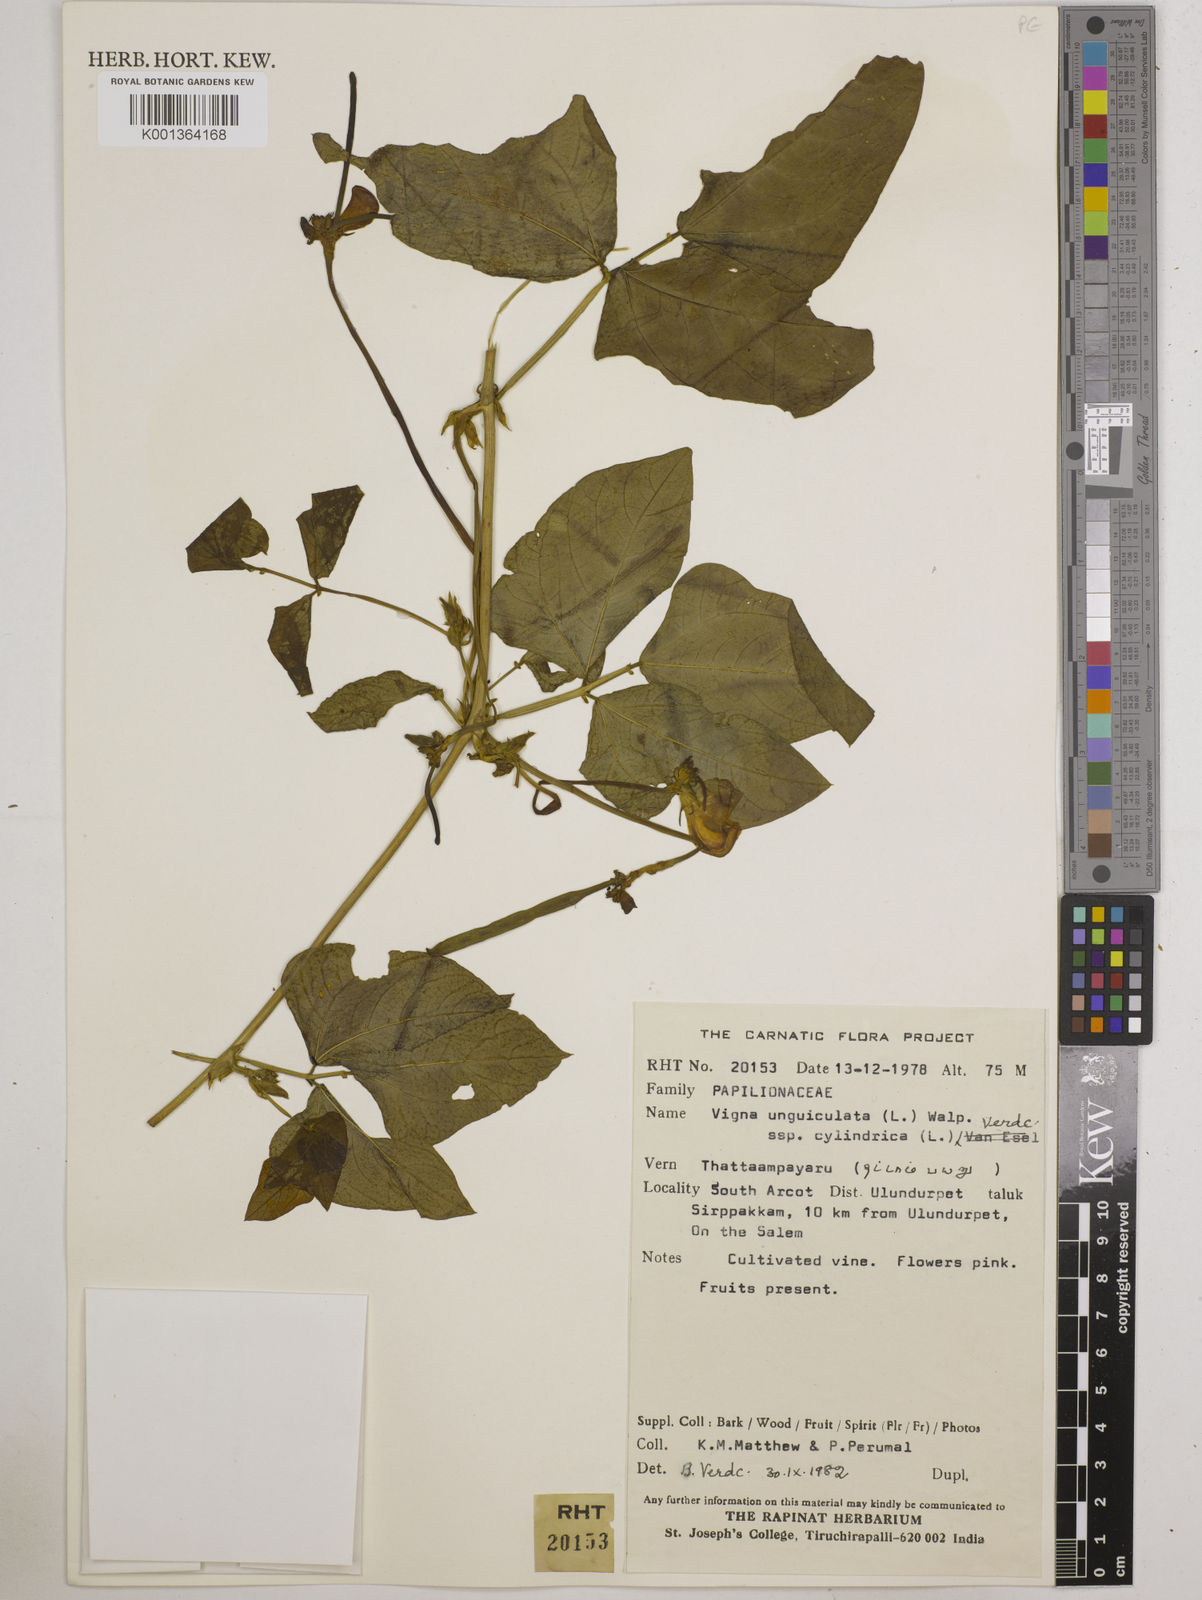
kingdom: Plantae
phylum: Tracheophyta
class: Magnoliopsida
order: Fabales
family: Fabaceae
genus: Vigna
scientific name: Vigna
